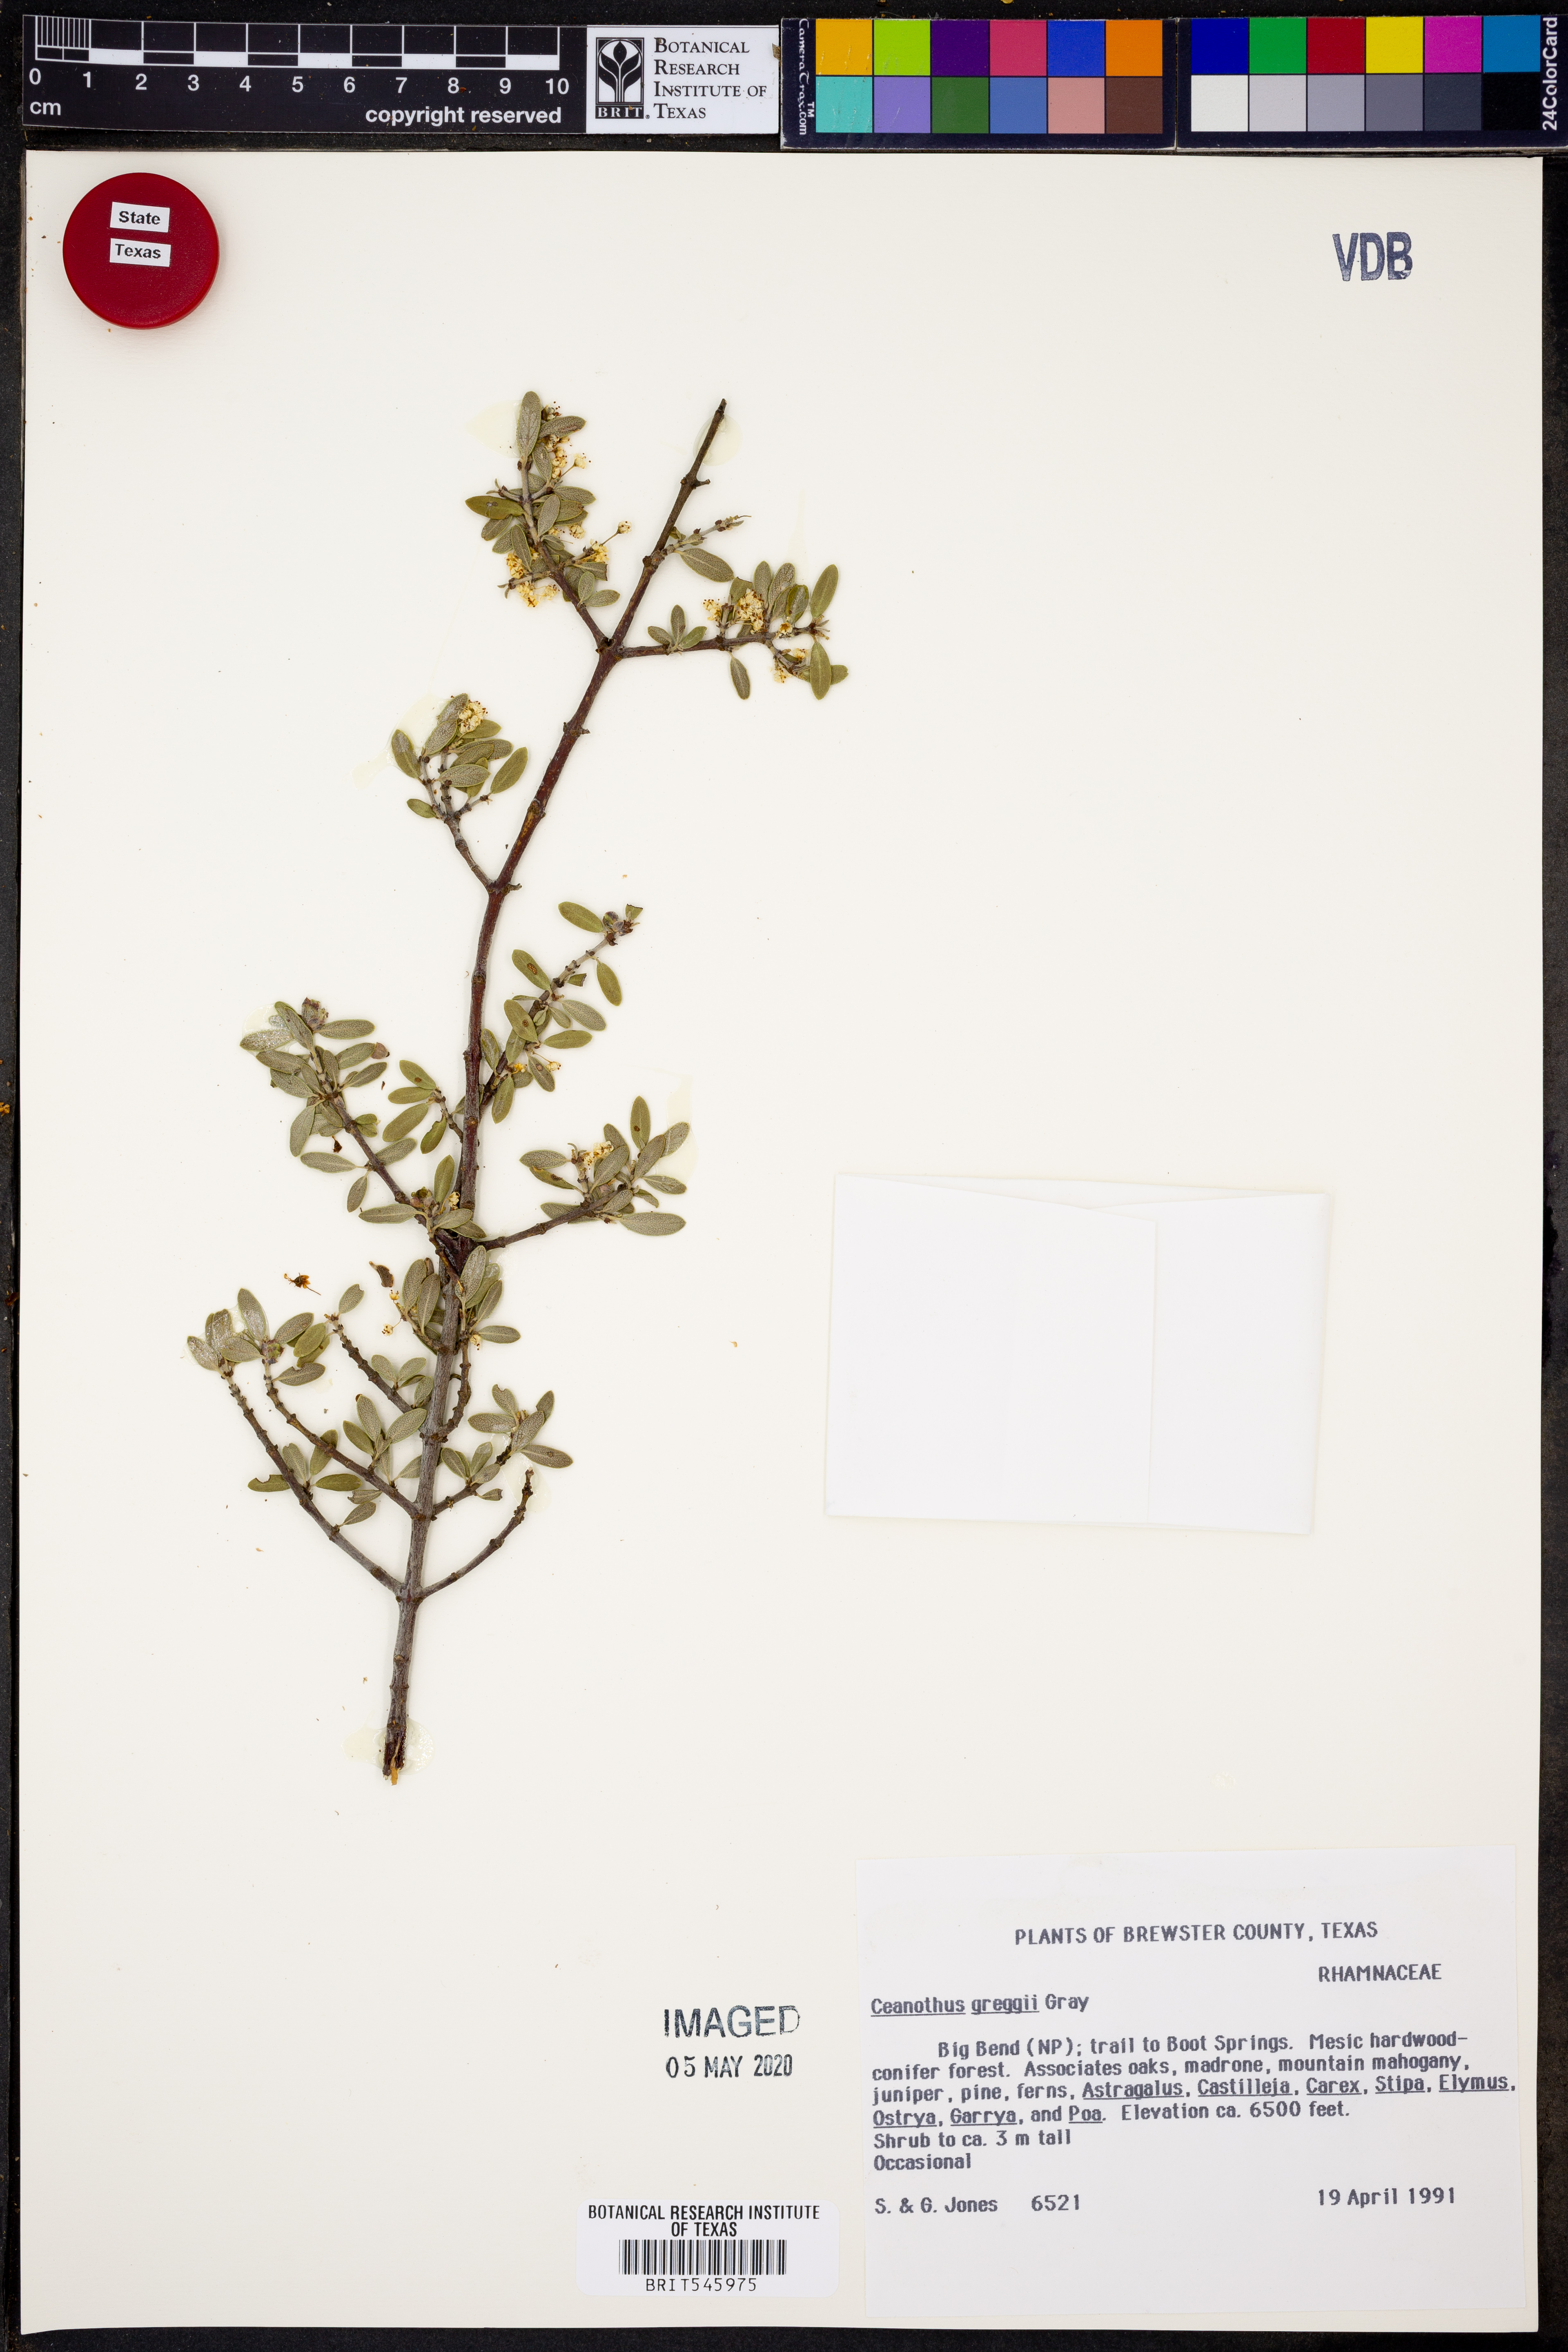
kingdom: Plantae
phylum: Tracheophyta
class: Magnoliopsida
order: Rosales
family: Rhamnaceae
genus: Ceanothus
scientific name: Ceanothus pauciflorus
